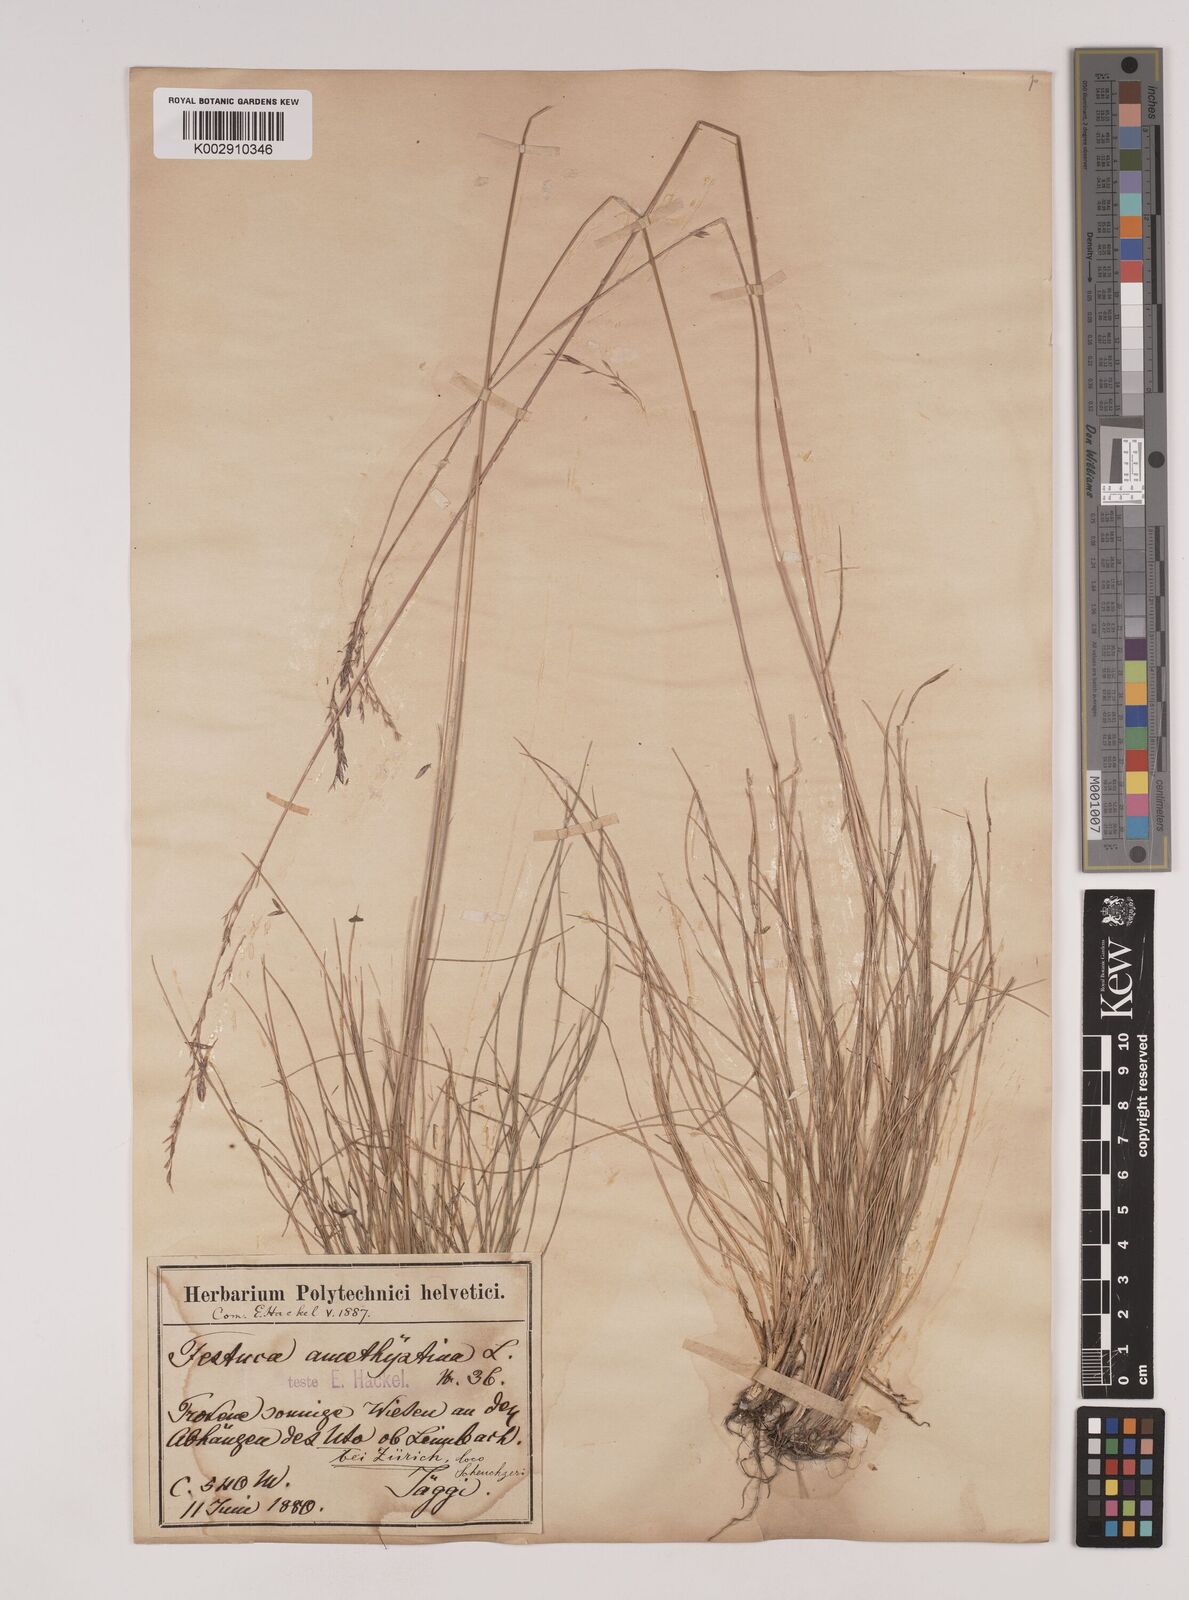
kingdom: Plantae
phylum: Tracheophyta
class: Liliopsida
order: Poales
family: Poaceae
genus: Festuca
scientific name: Festuca amethystina
